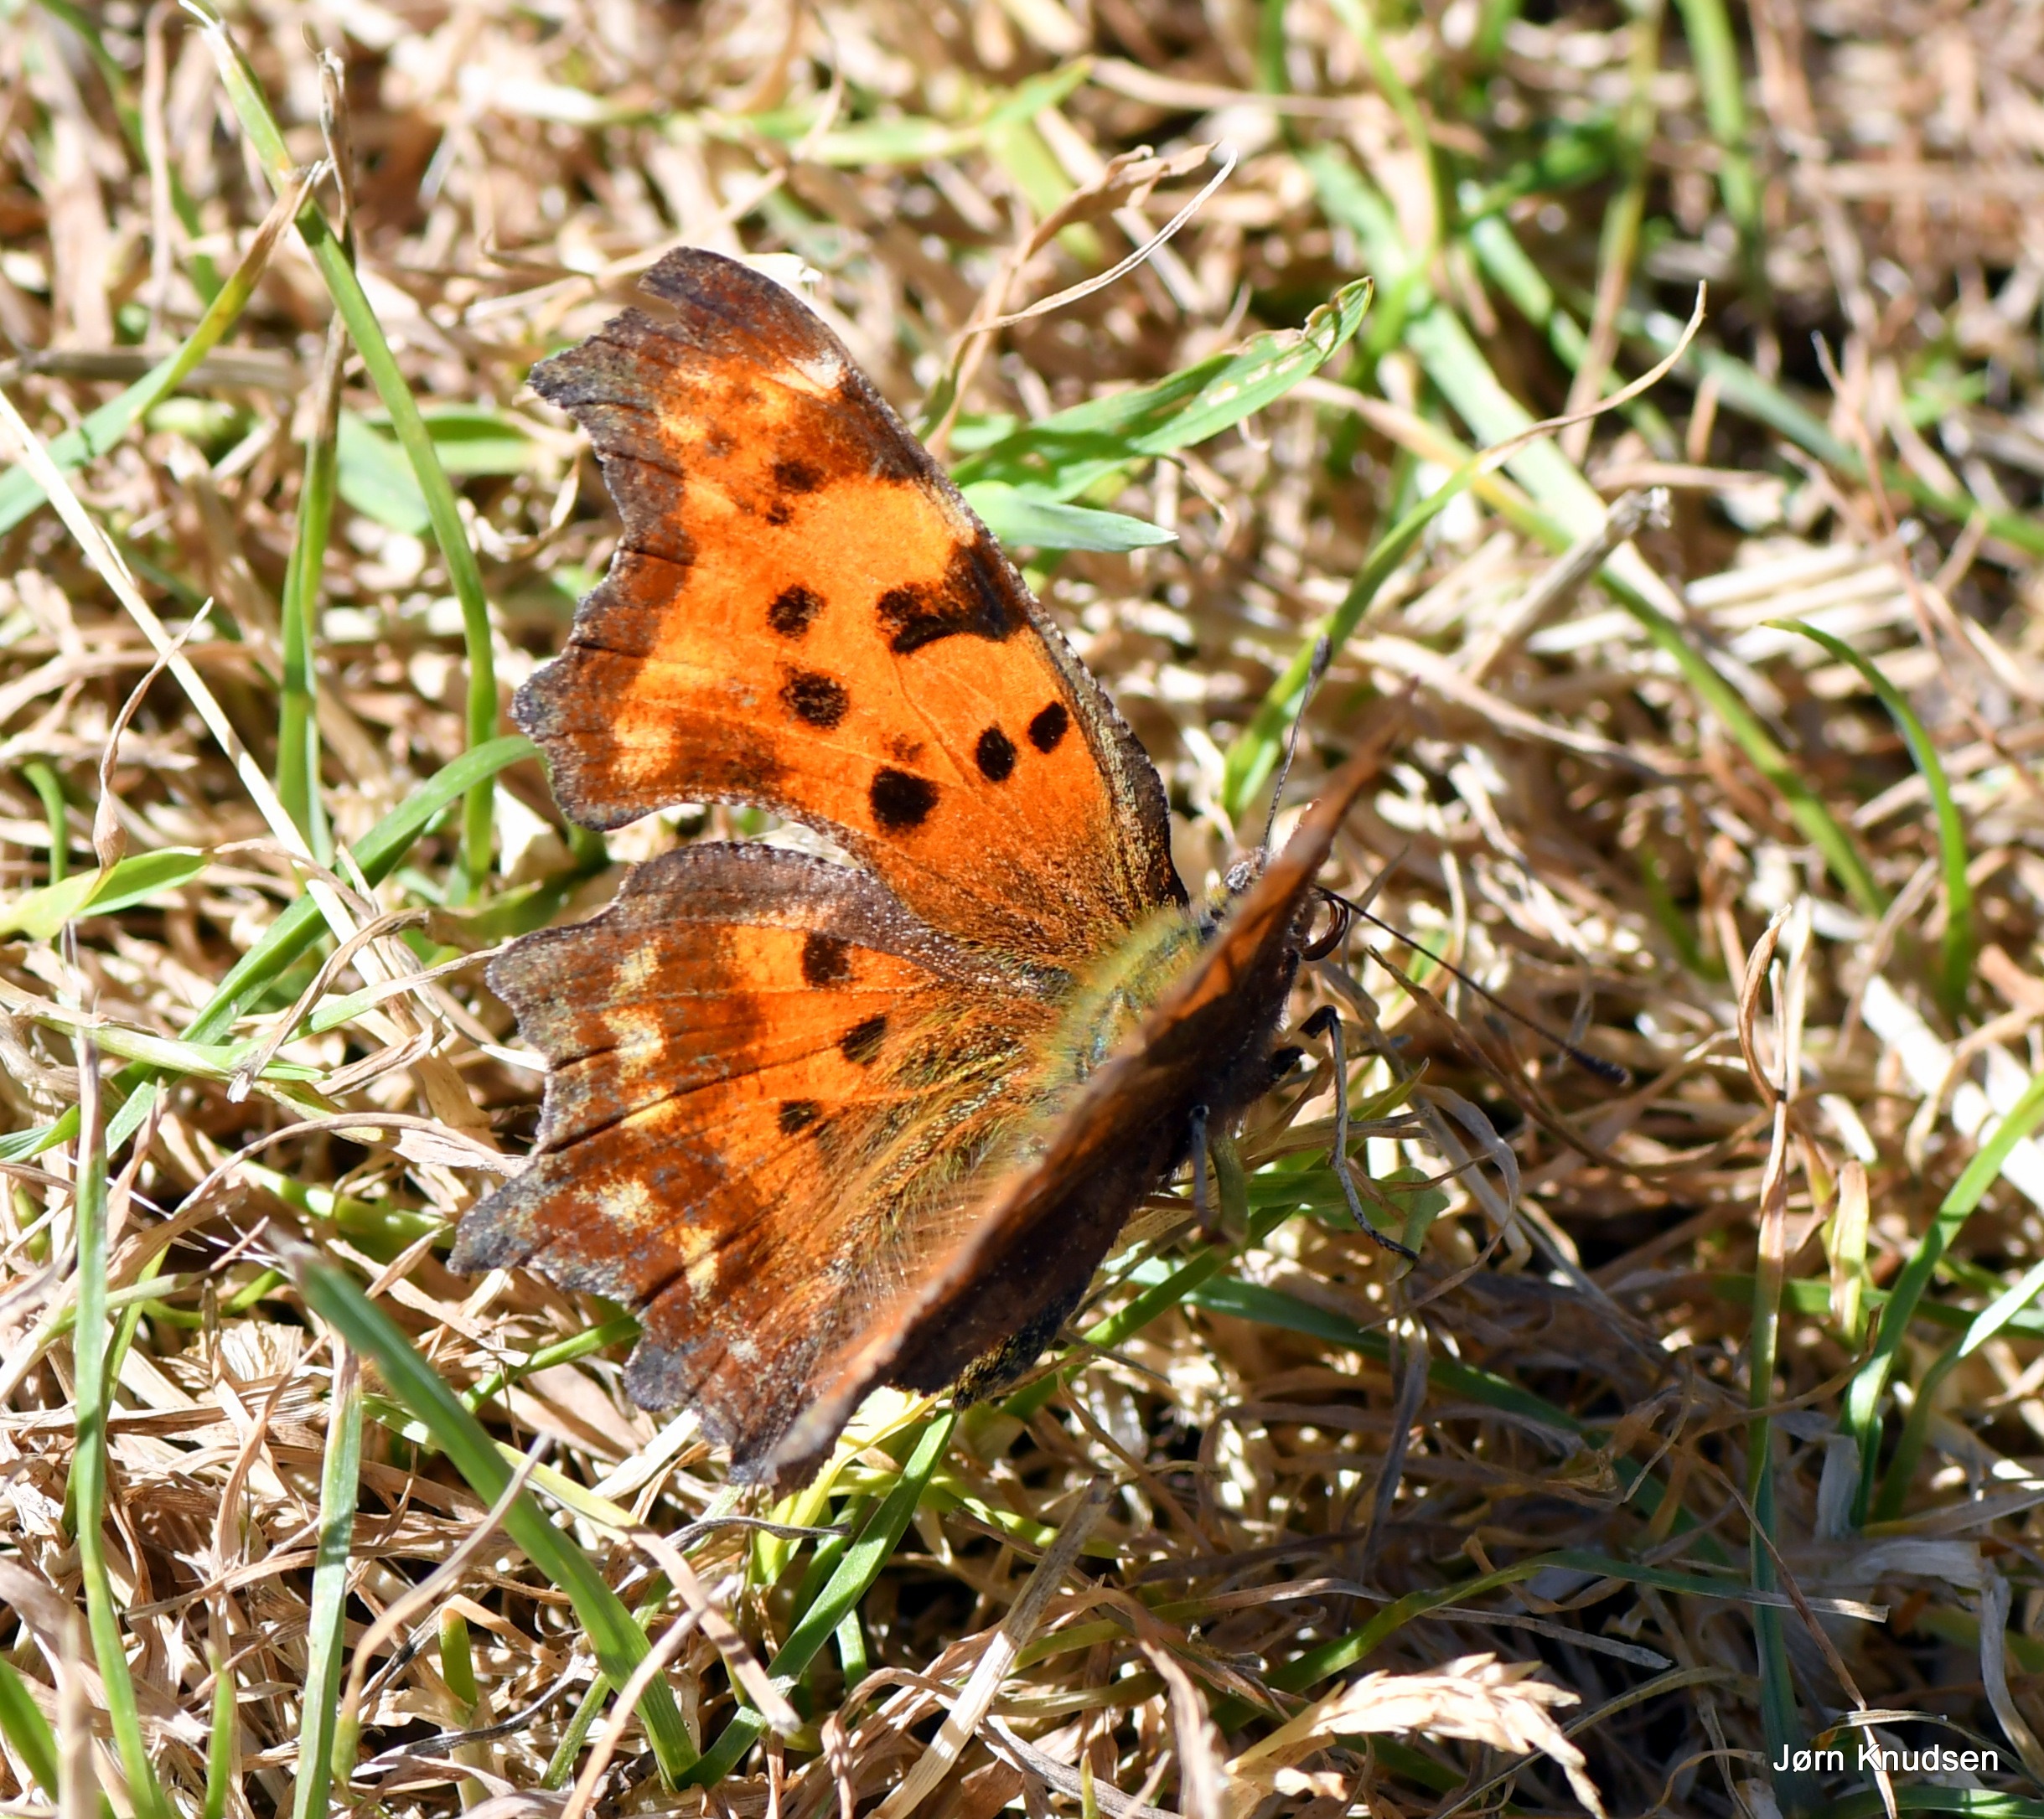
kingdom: Animalia
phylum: Arthropoda
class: Insecta
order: Lepidoptera
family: Nymphalidae
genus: Polygonia
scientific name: Polygonia c-album
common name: Det hvide C
